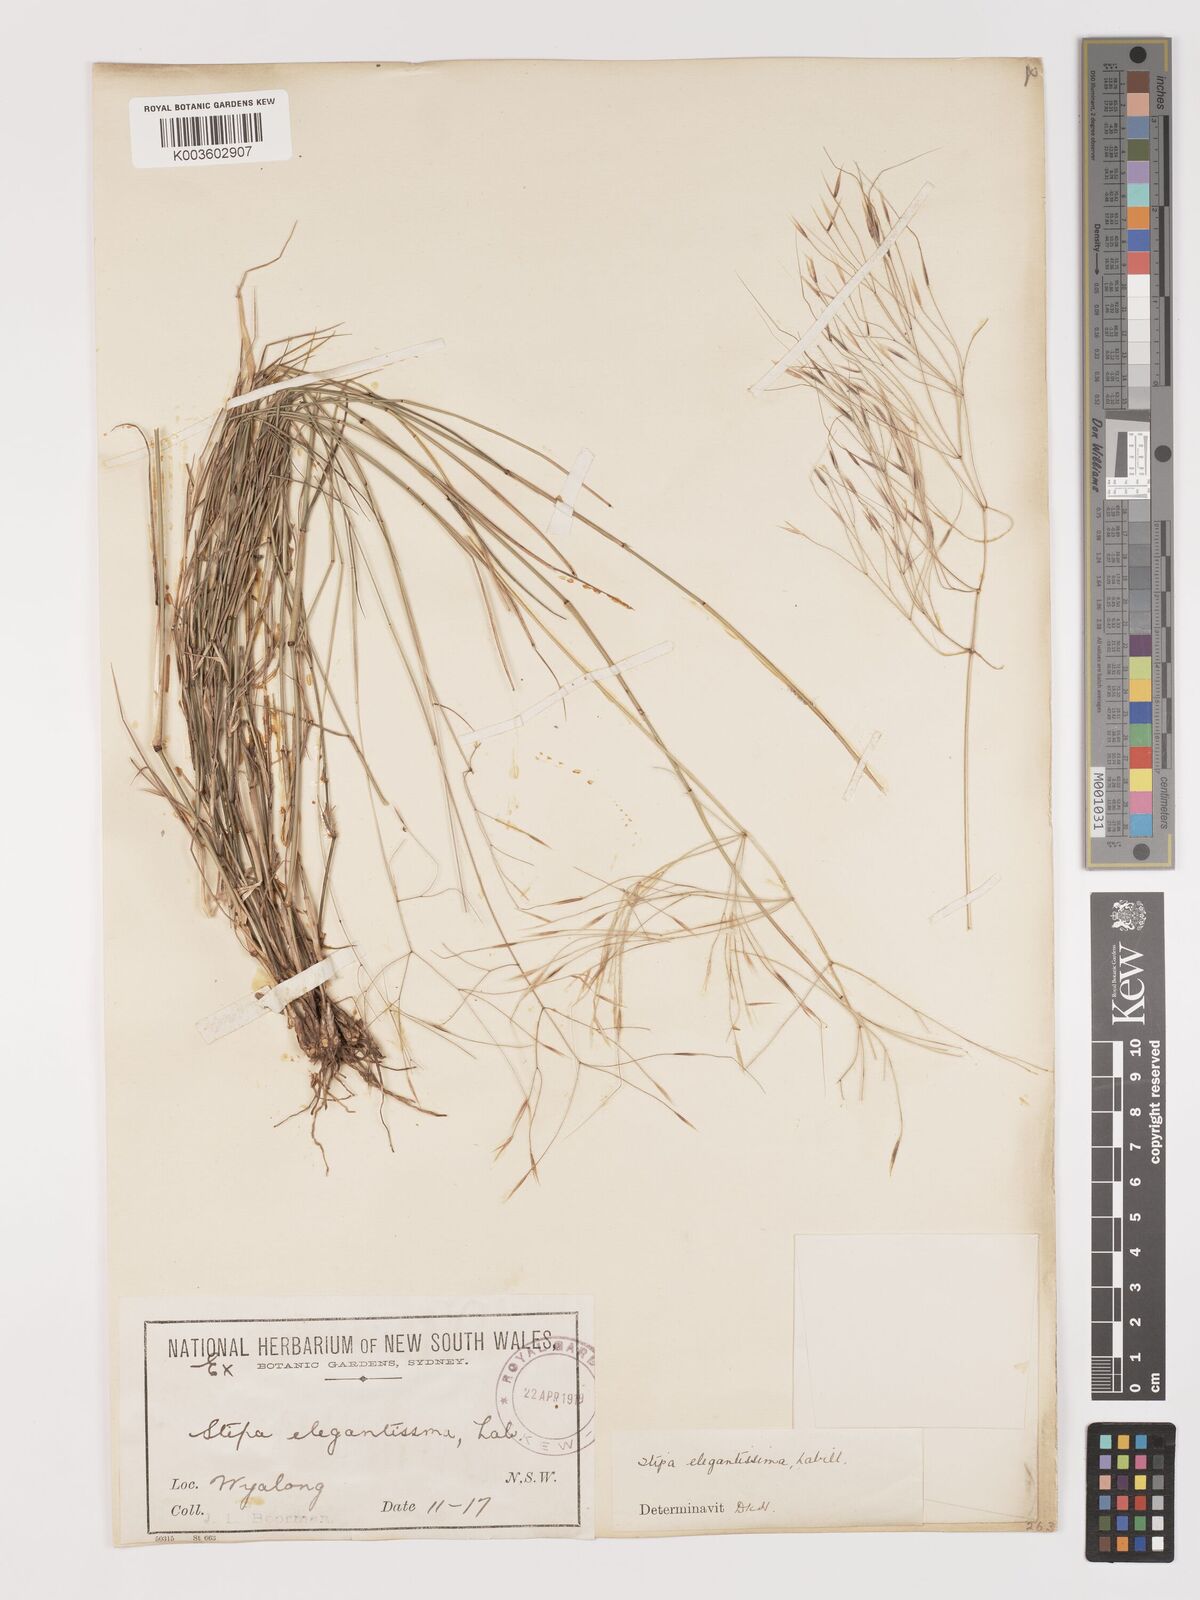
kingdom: Plantae
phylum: Tracheophyta
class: Liliopsida
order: Poales
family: Poaceae
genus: Austrostipa
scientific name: Austrostipa elegantissima
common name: Feather spear grass
